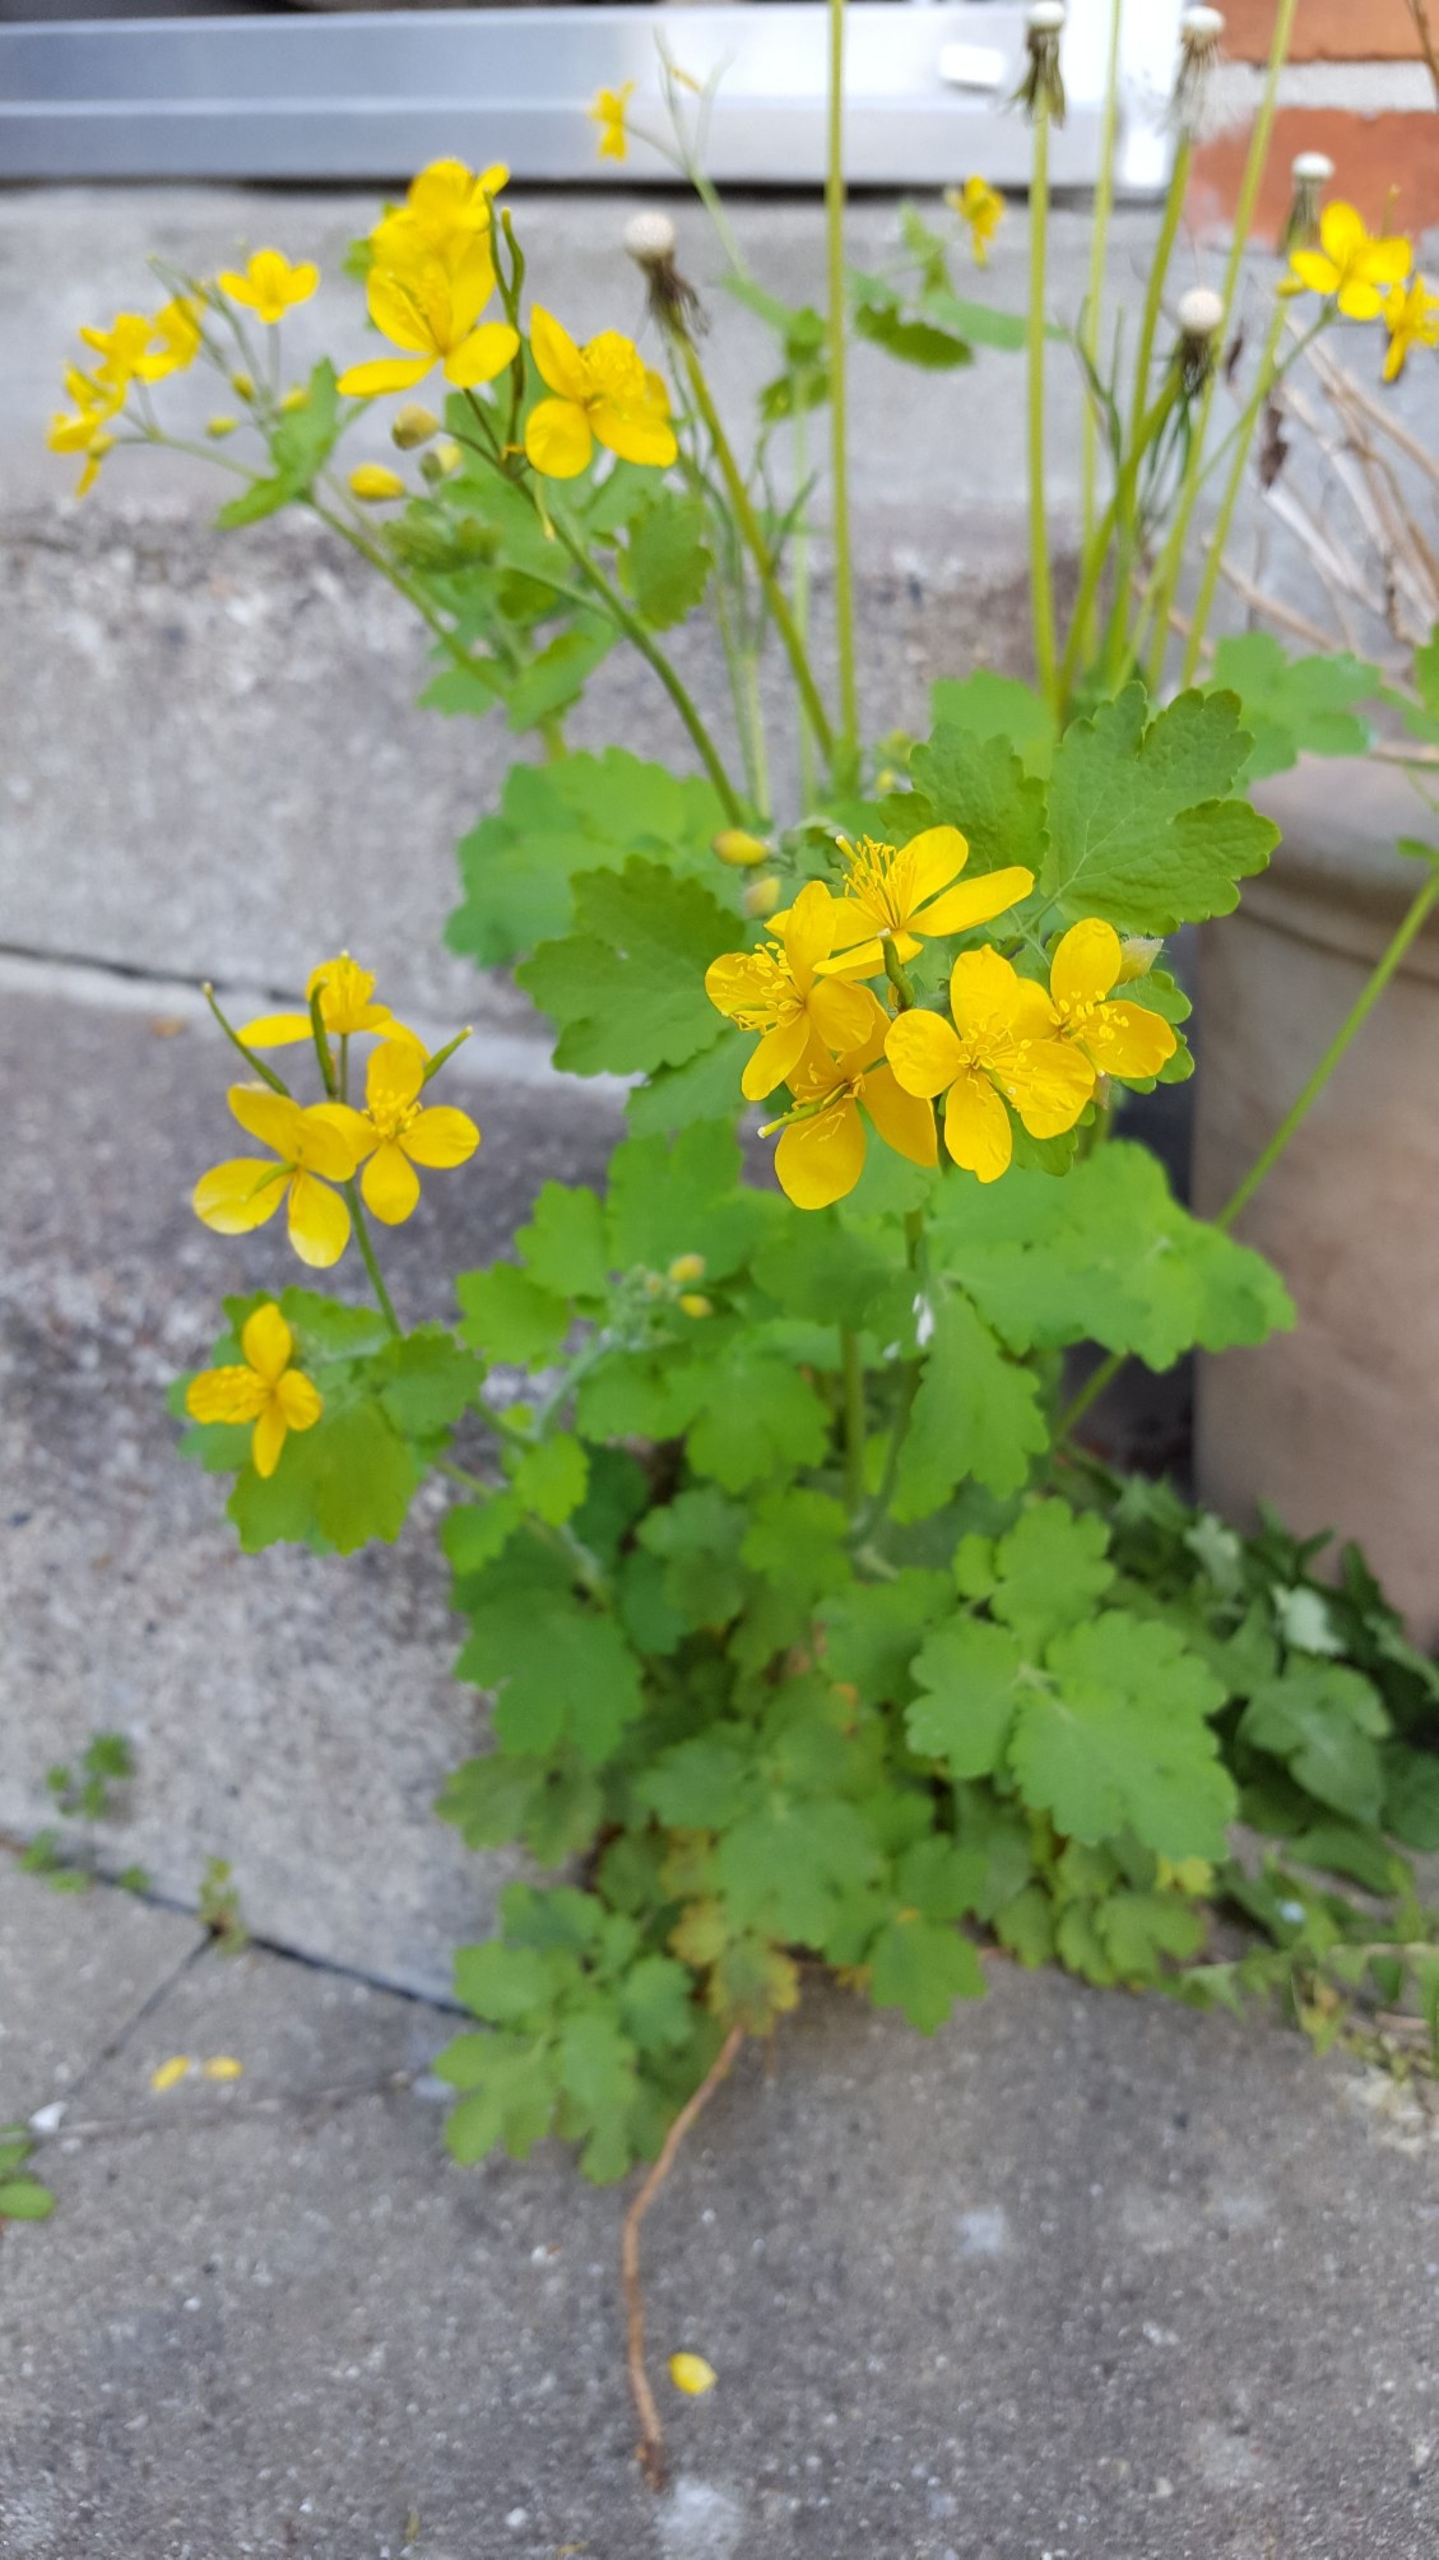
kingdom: Plantae
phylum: Tracheophyta
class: Magnoliopsida
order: Ranunculales
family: Papaveraceae
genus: Chelidonium
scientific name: Chelidonium majus
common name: Svaleurt
